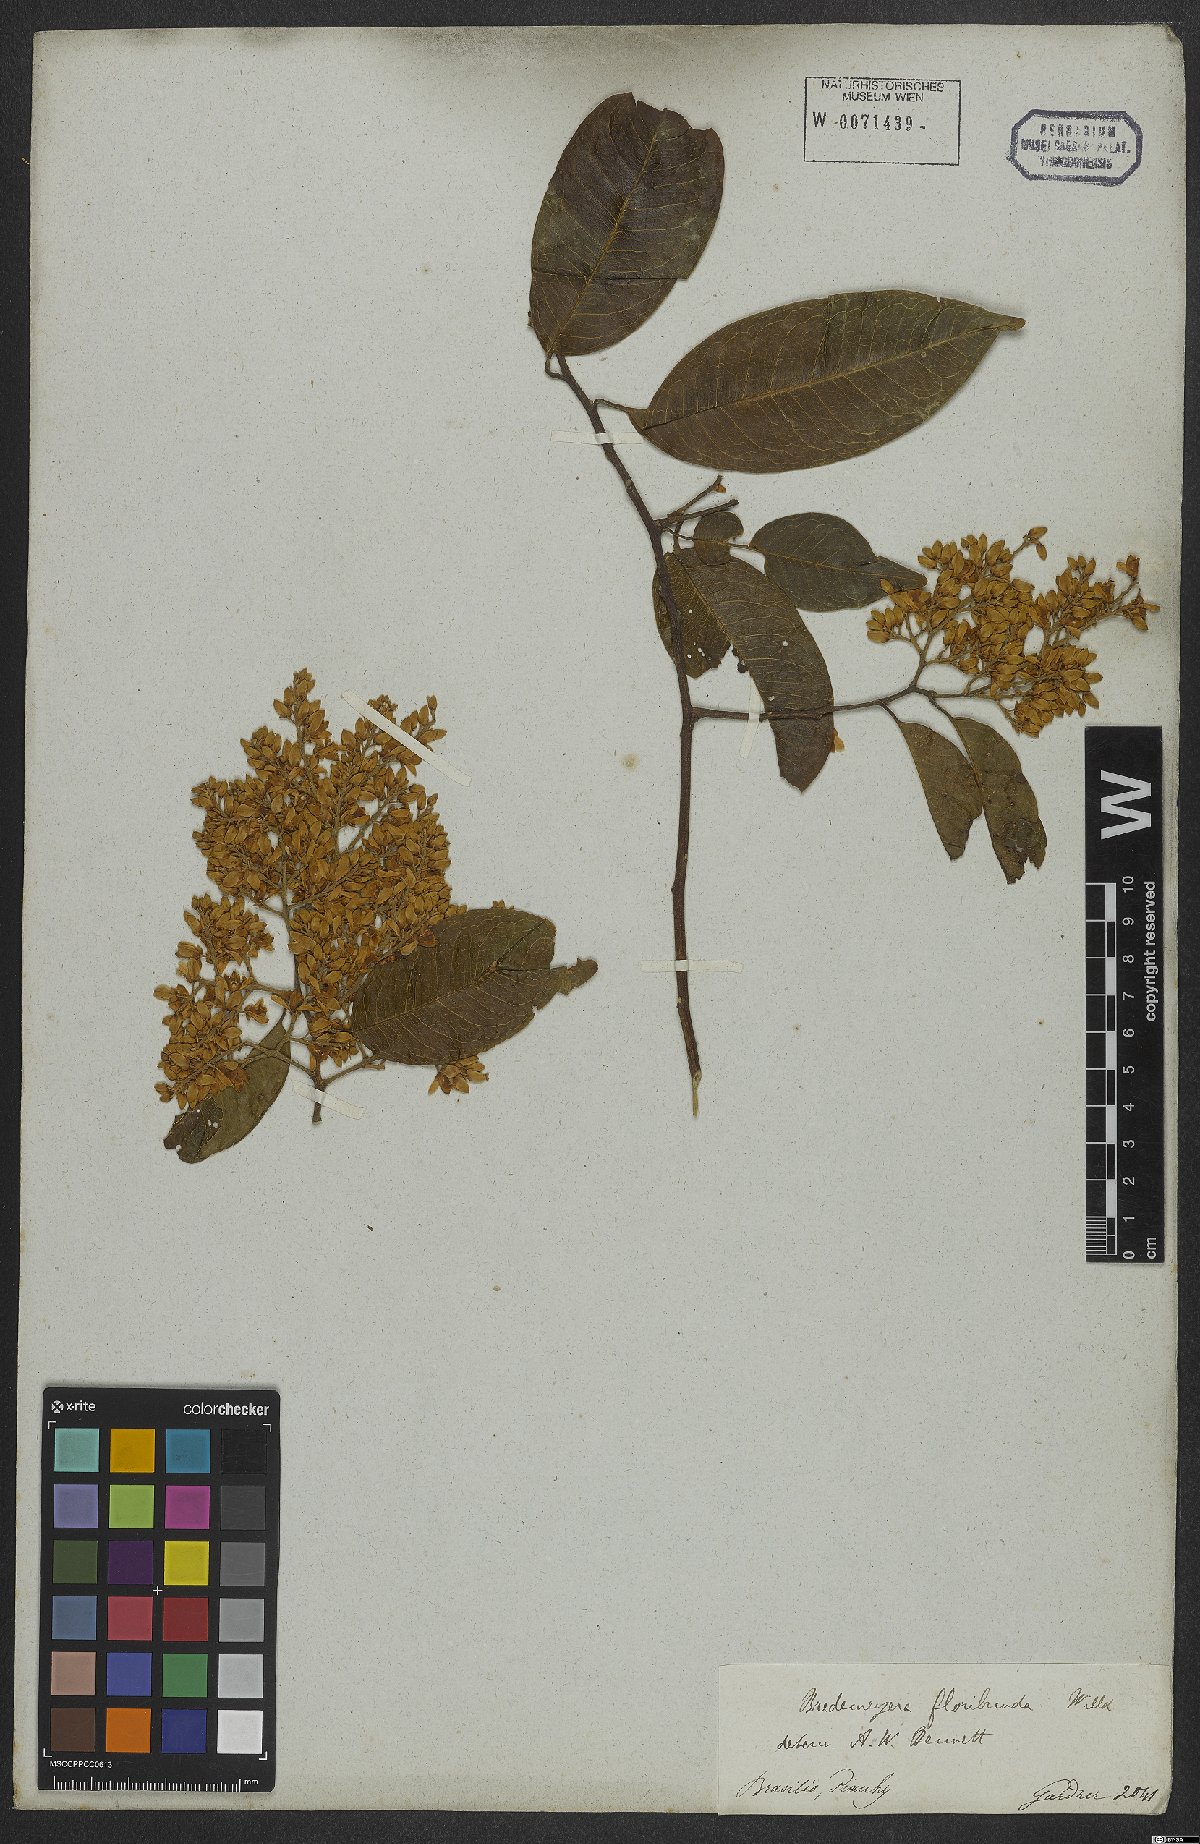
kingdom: Plantae
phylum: Tracheophyta
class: Magnoliopsida
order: Fabales
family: Polygalaceae
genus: Bredemeyera
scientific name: Bredemeyera floribunda
